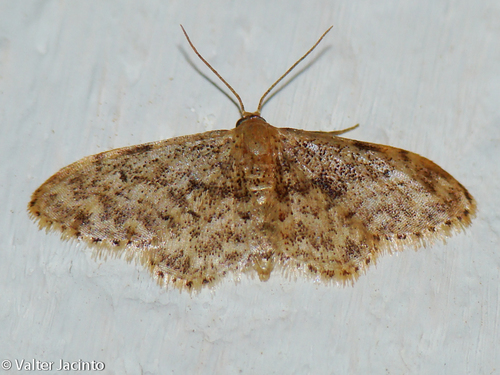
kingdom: Animalia
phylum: Arthropoda
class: Insecta
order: Lepidoptera
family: Geometridae
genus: Idaea
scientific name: Idaea inquinata
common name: Rusty wave
